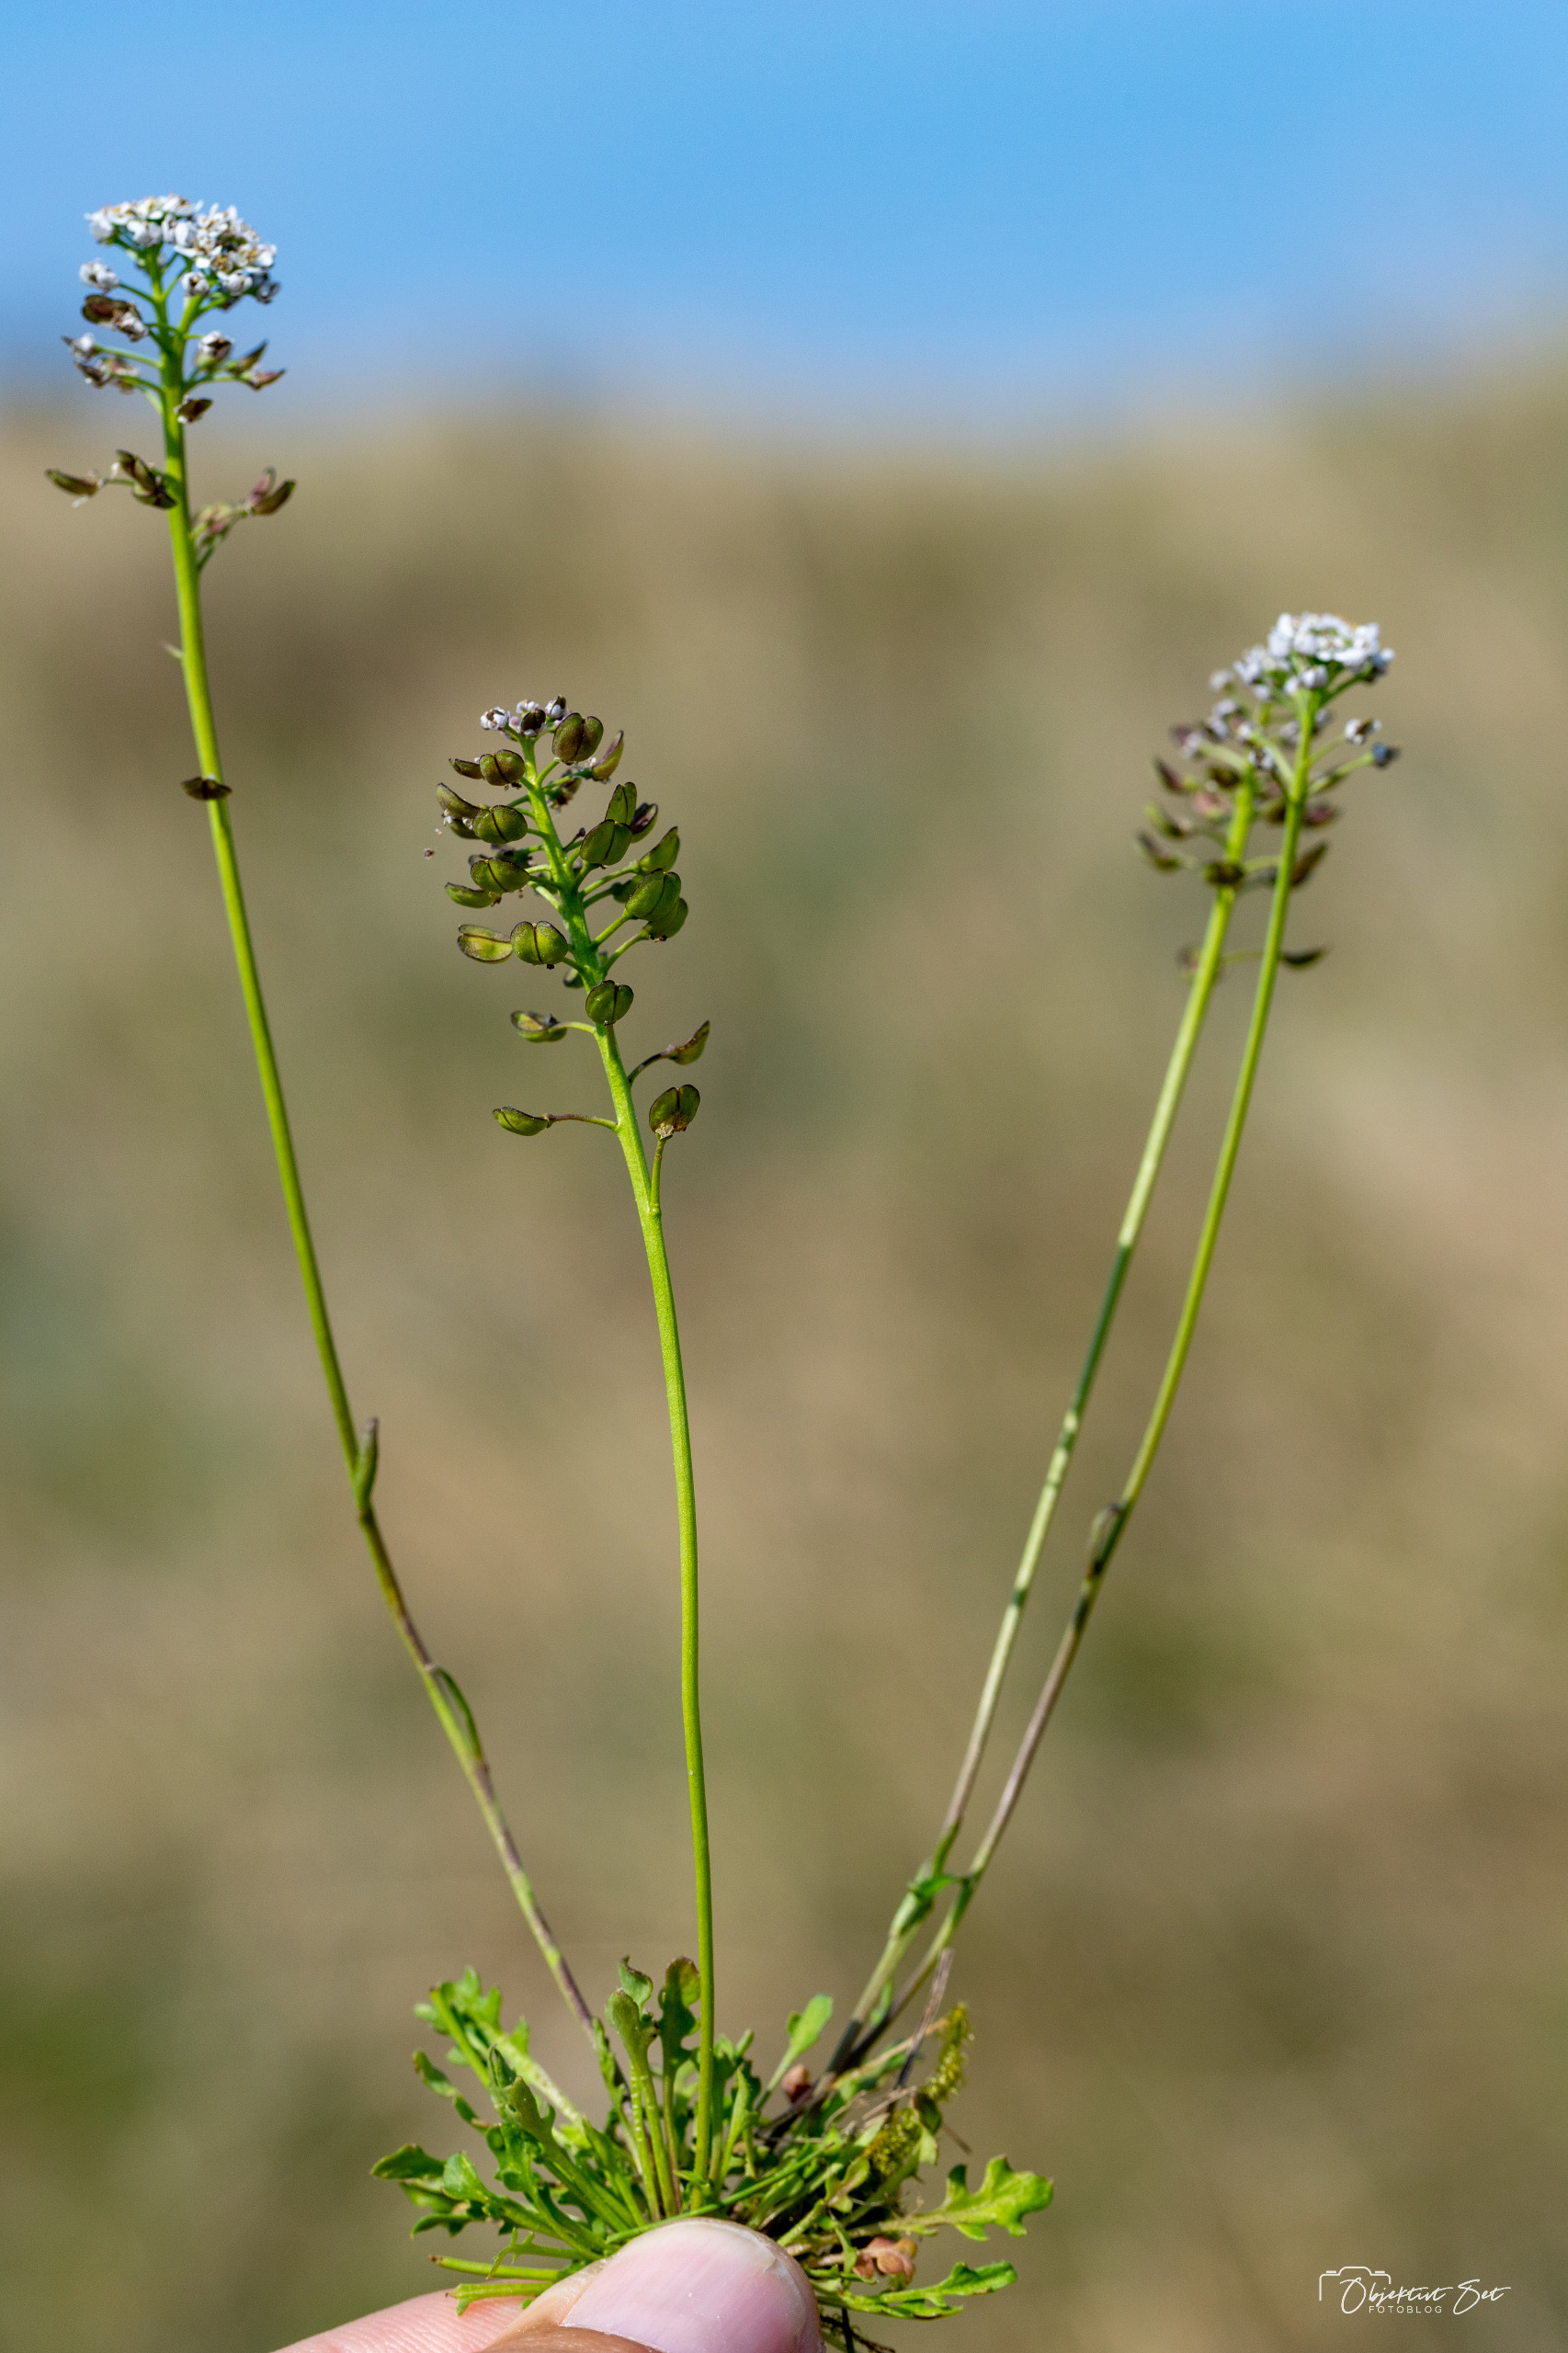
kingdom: Plantae
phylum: Tracheophyta
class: Magnoliopsida
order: Brassicales
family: Brassicaceae
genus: Teesdalia
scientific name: Teesdalia nudicaulis
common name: Flipkrave
